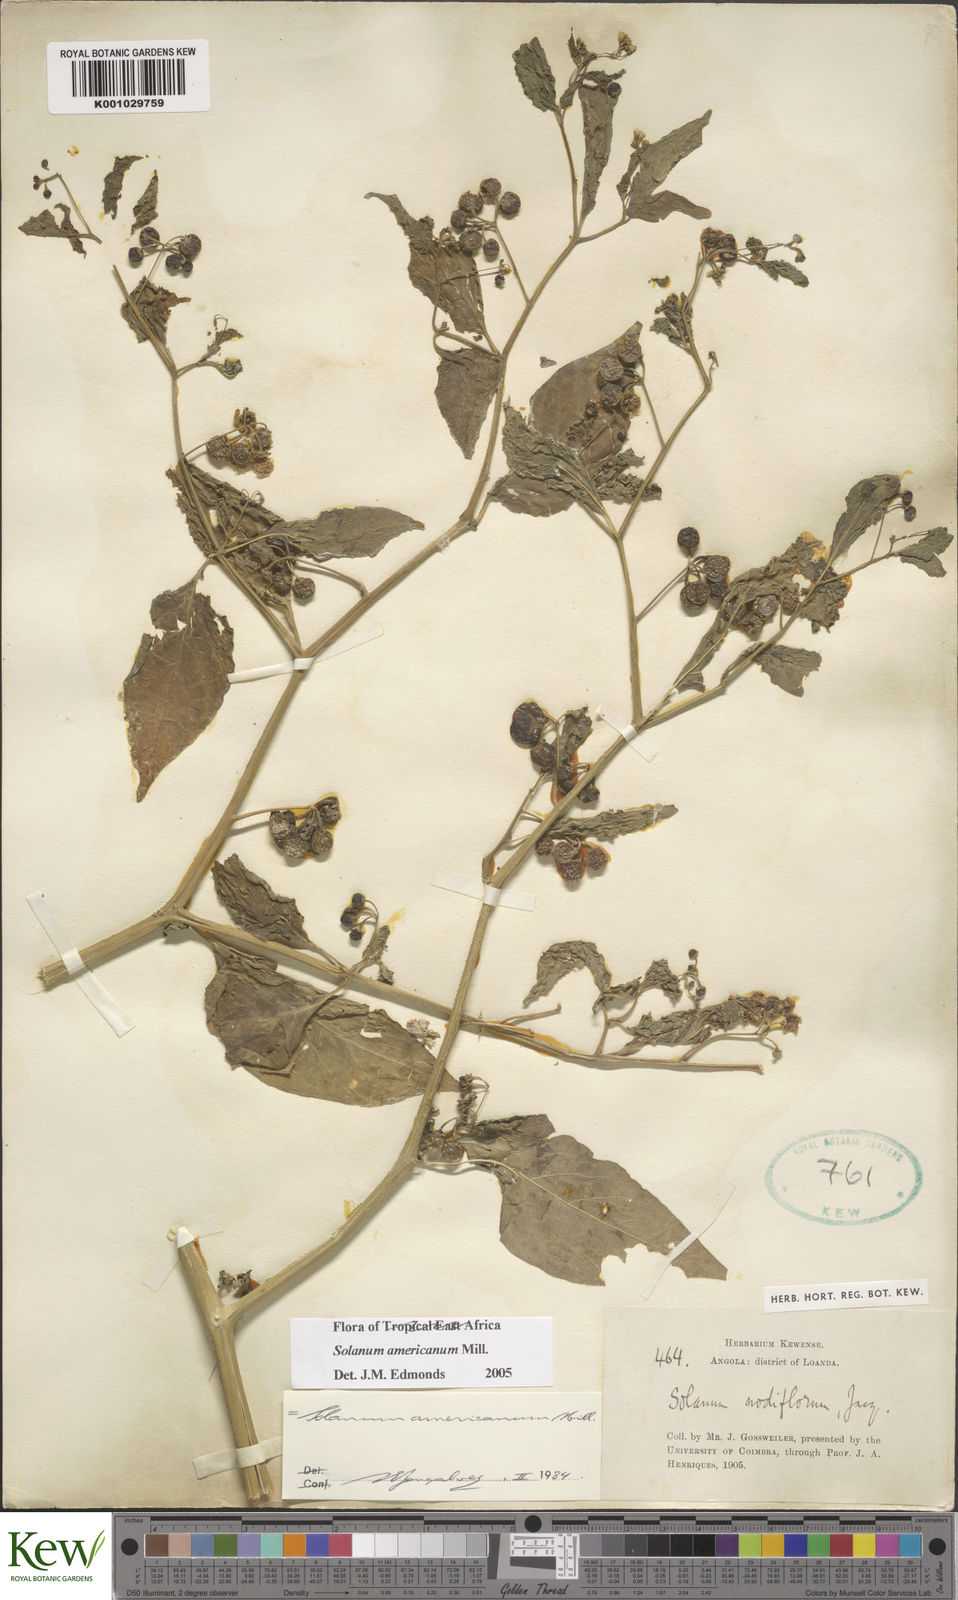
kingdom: Plantae
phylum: Tracheophyta
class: Magnoliopsida
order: Solanales
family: Solanaceae
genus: Solanum
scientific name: Solanum americanum
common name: American black nightshade
